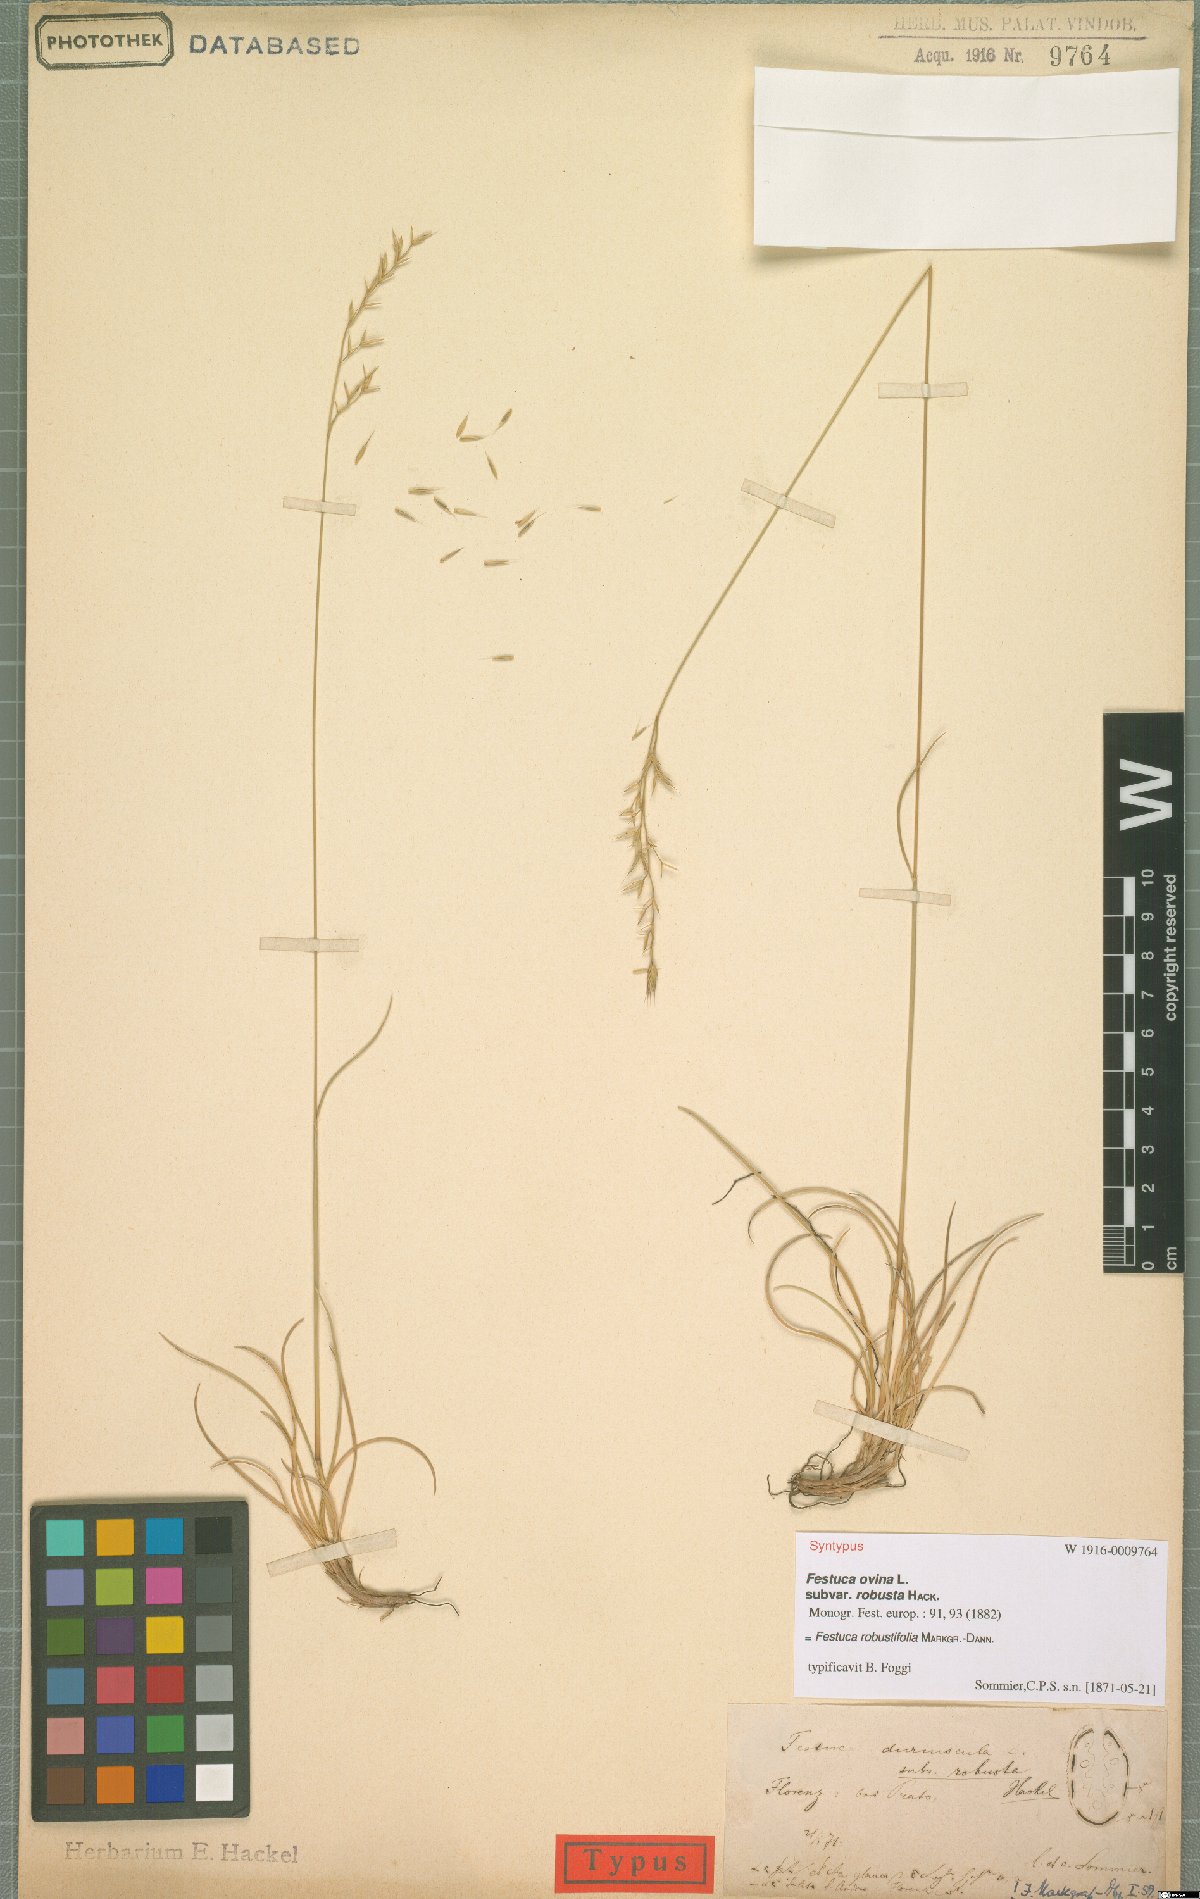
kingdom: Plantae
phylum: Tracheophyta
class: Liliopsida
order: Poales
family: Poaceae
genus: Festuca
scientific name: Festuca robustifolia
